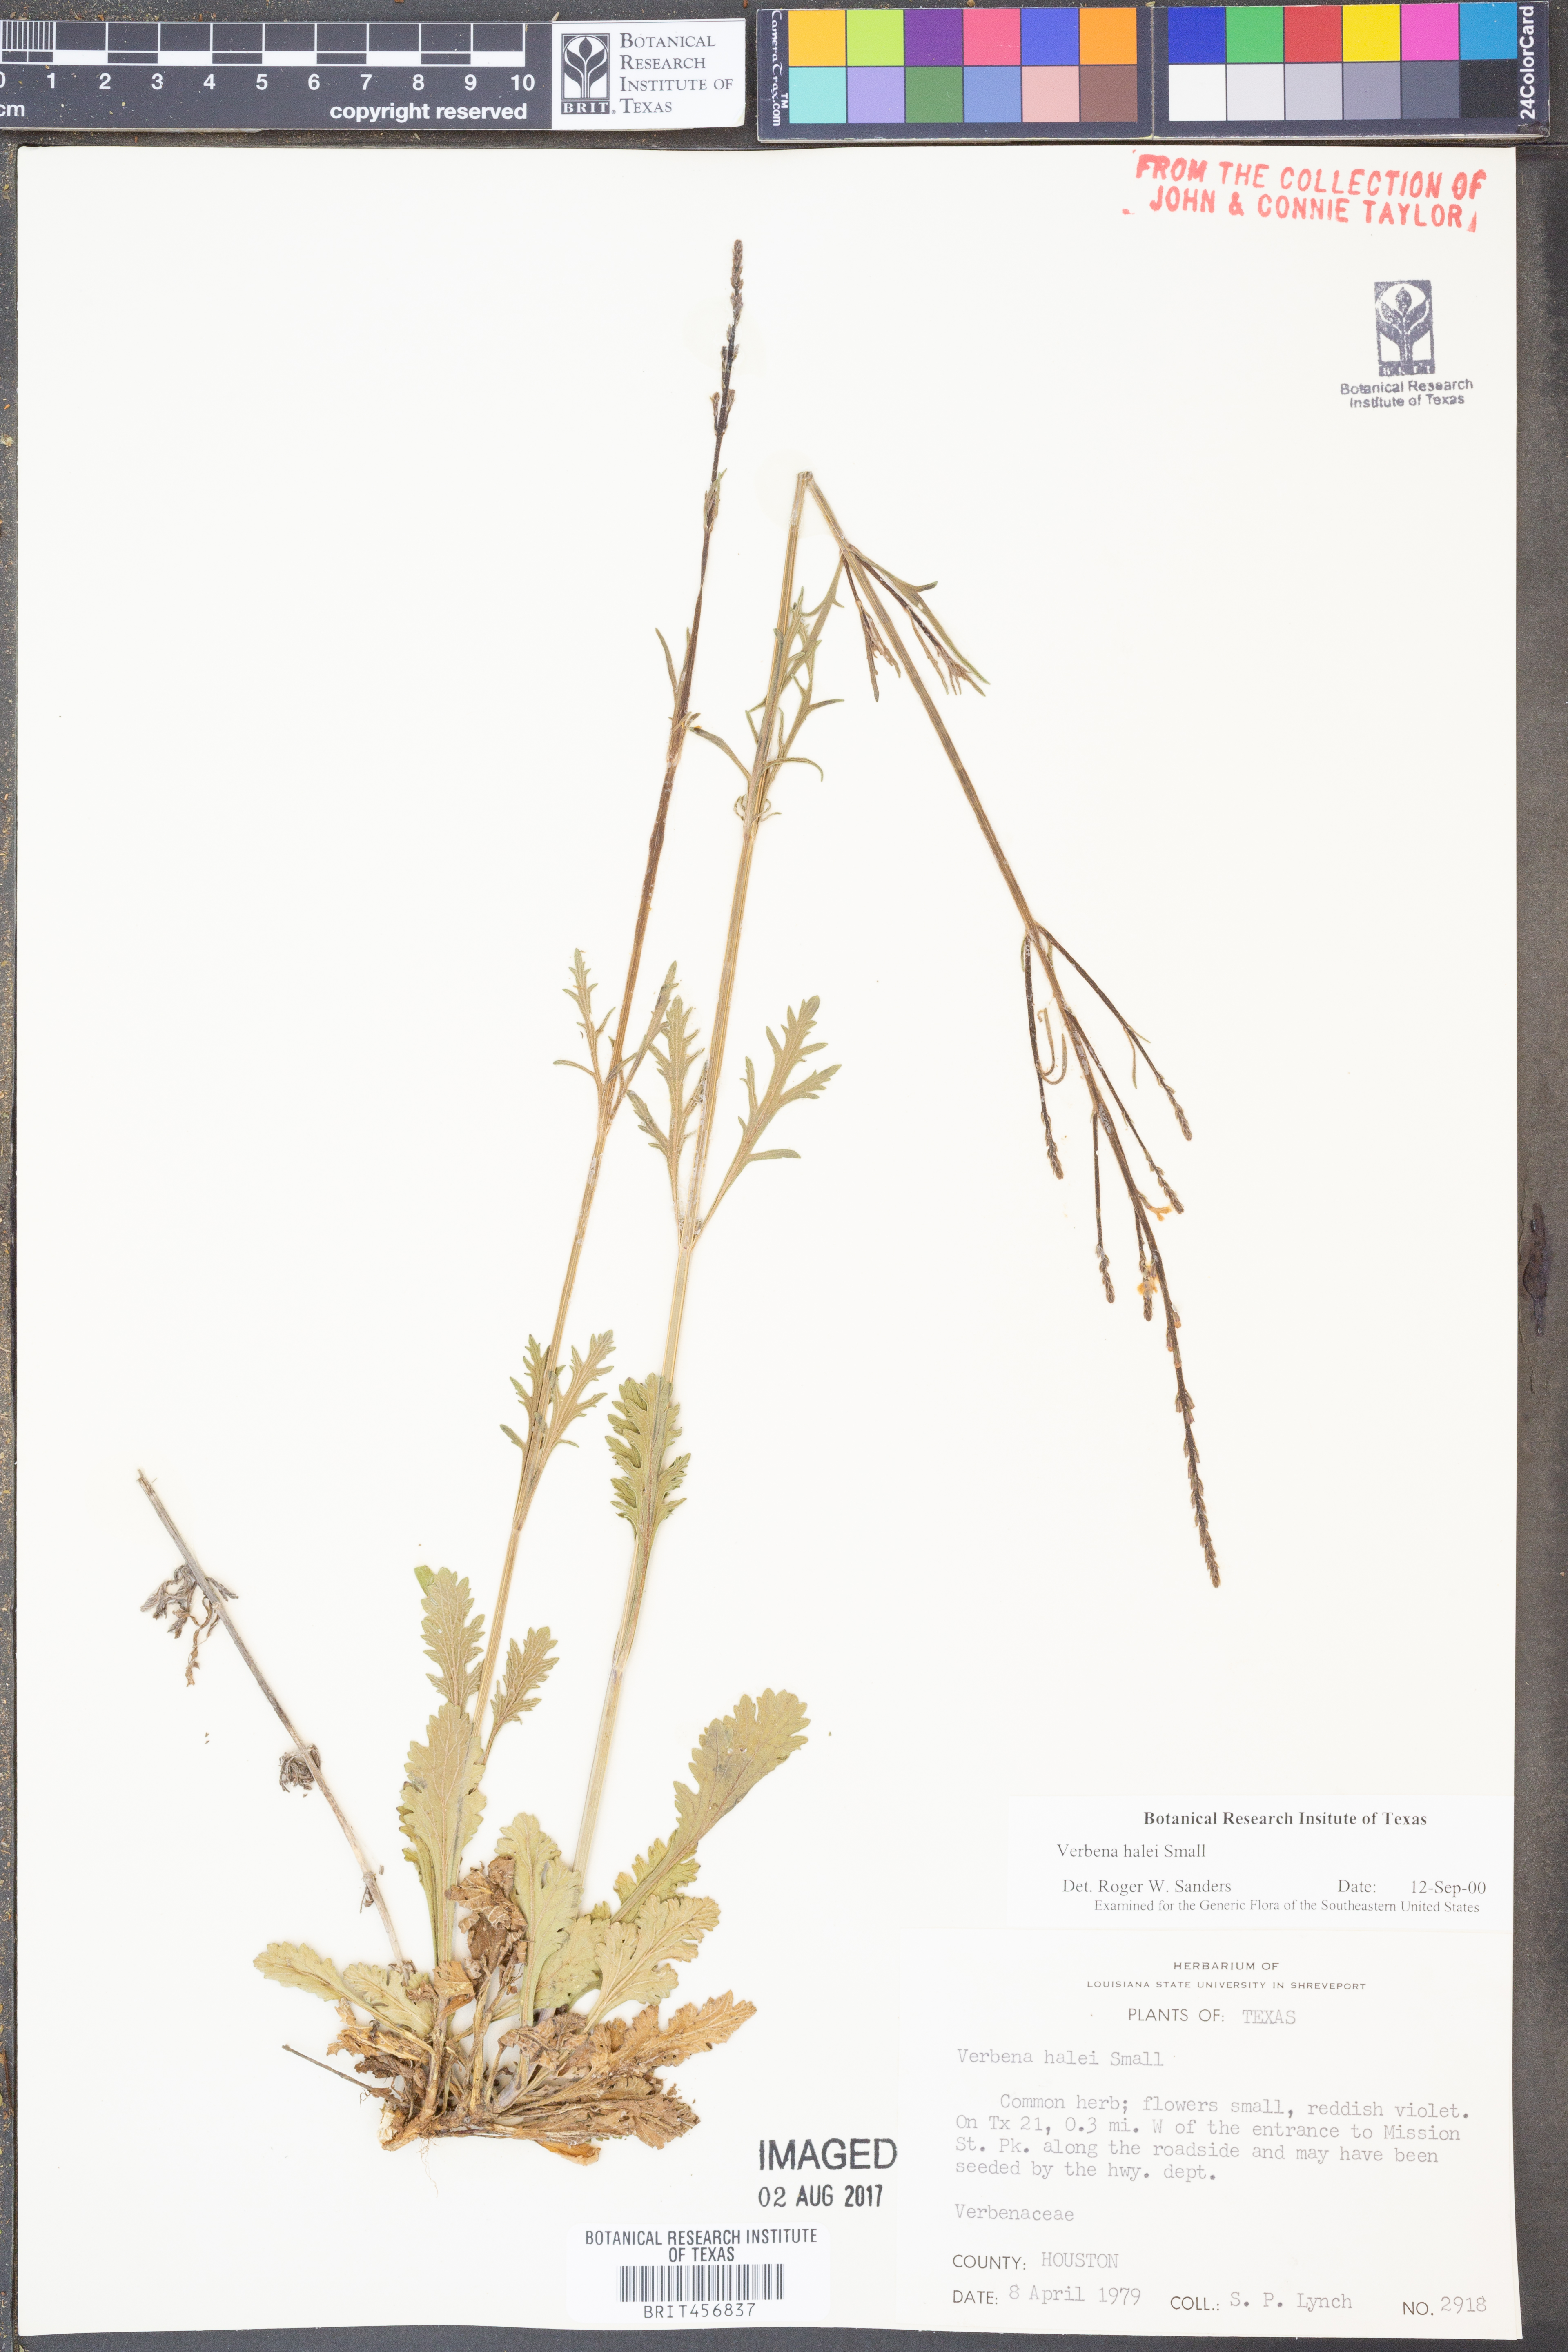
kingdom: Plantae
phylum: Tracheophyta
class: Magnoliopsida
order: Lamiales
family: Verbenaceae
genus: Verbena
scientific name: Verbena halei
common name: Texas vervain
